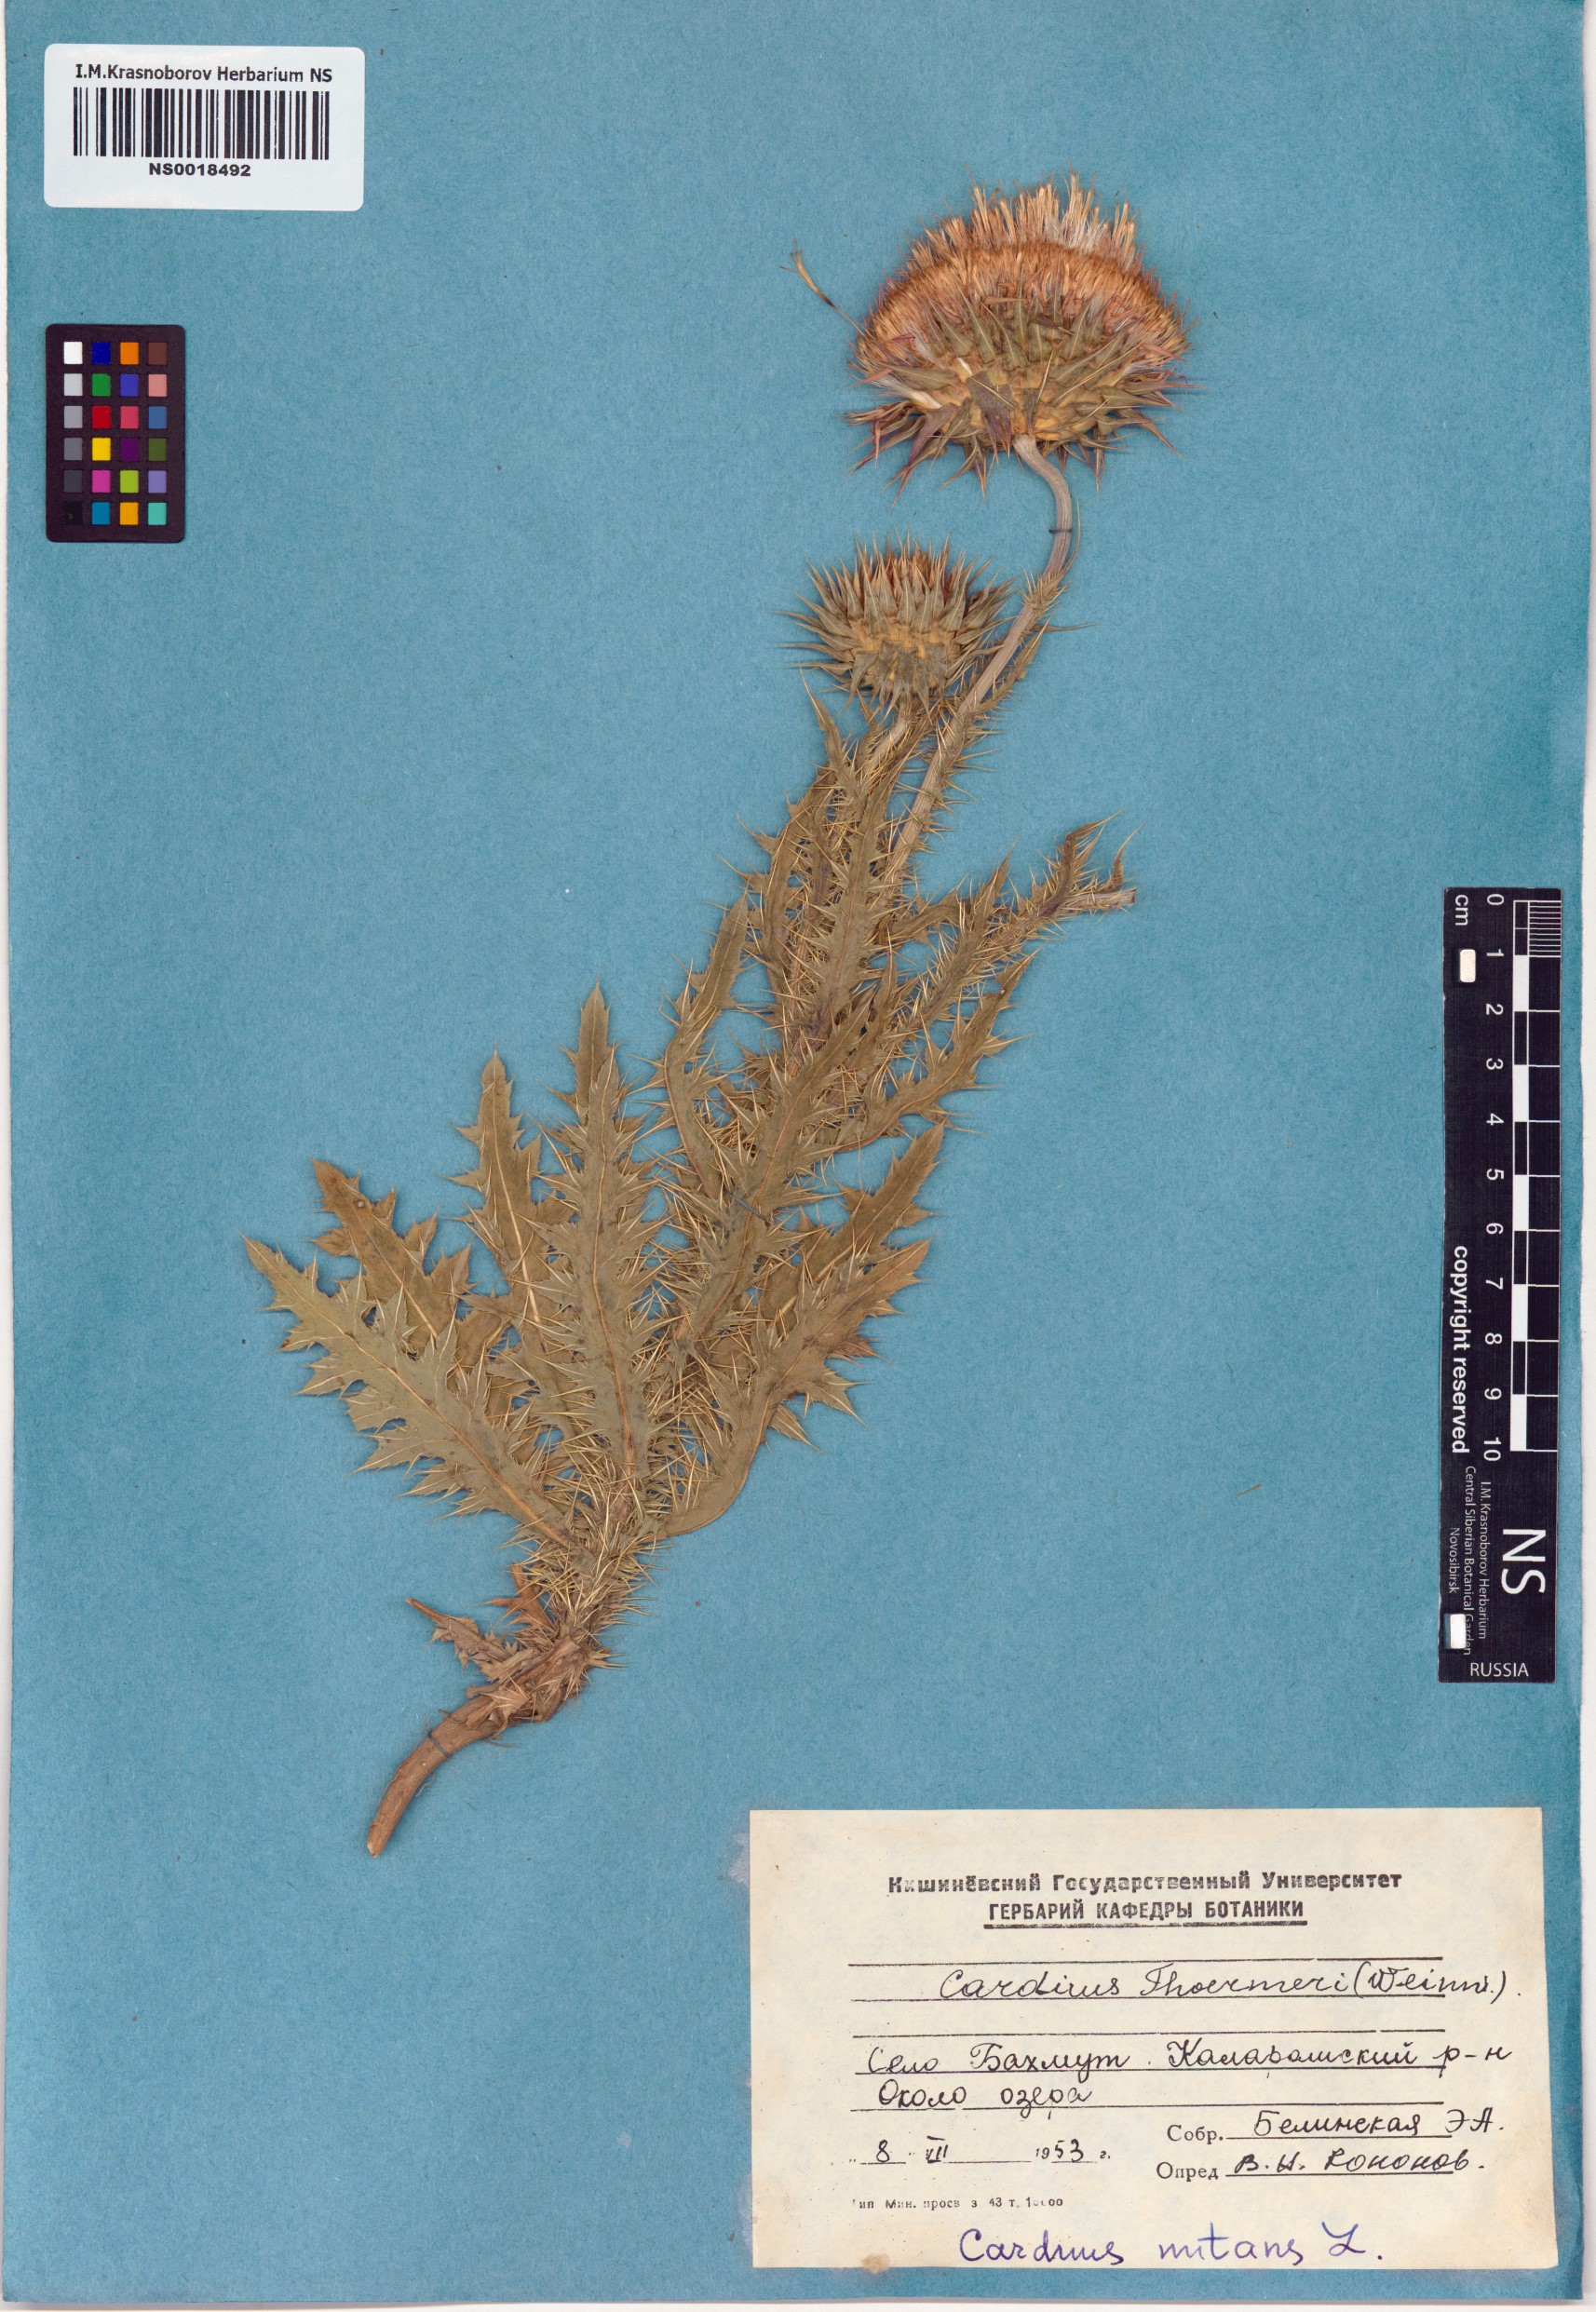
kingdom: Plantae
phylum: Tracheophyta
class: Magnoliopsida
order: Asterales
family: Asteraceae
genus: Carduus
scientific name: Carduus nutans
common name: Musk thistle
